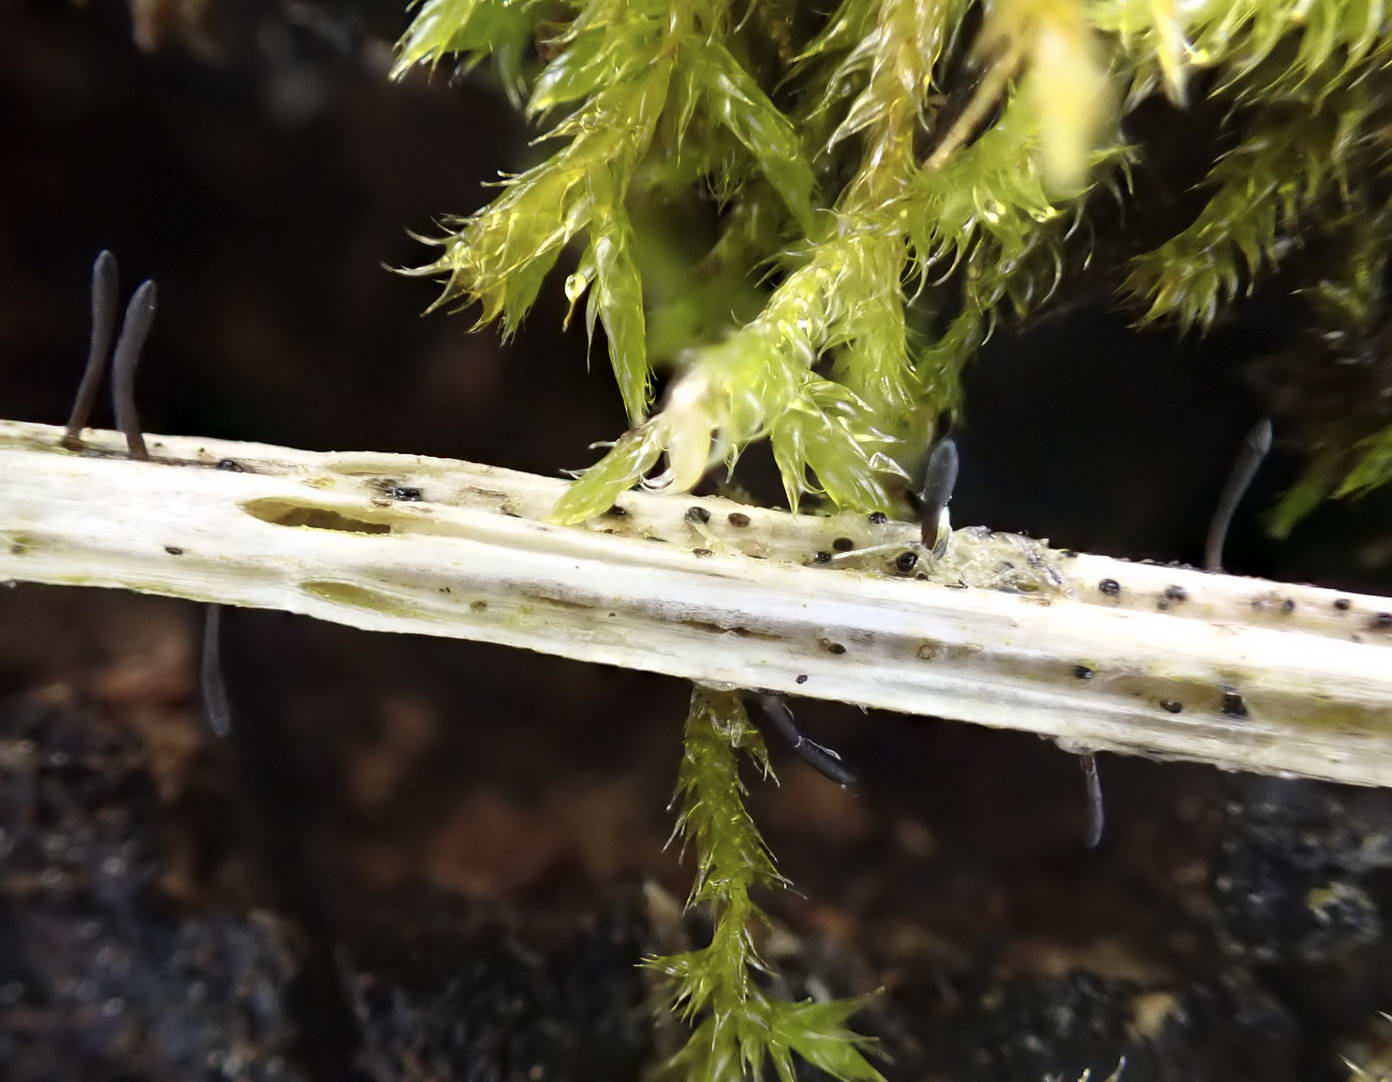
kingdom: Fungi
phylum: Ascomycota
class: Dothideomycetes
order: Acrospermales
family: Acrospermaceae
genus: Acrospermum
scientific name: Acrospermum pallidulum
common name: snerre-stængeltunge
